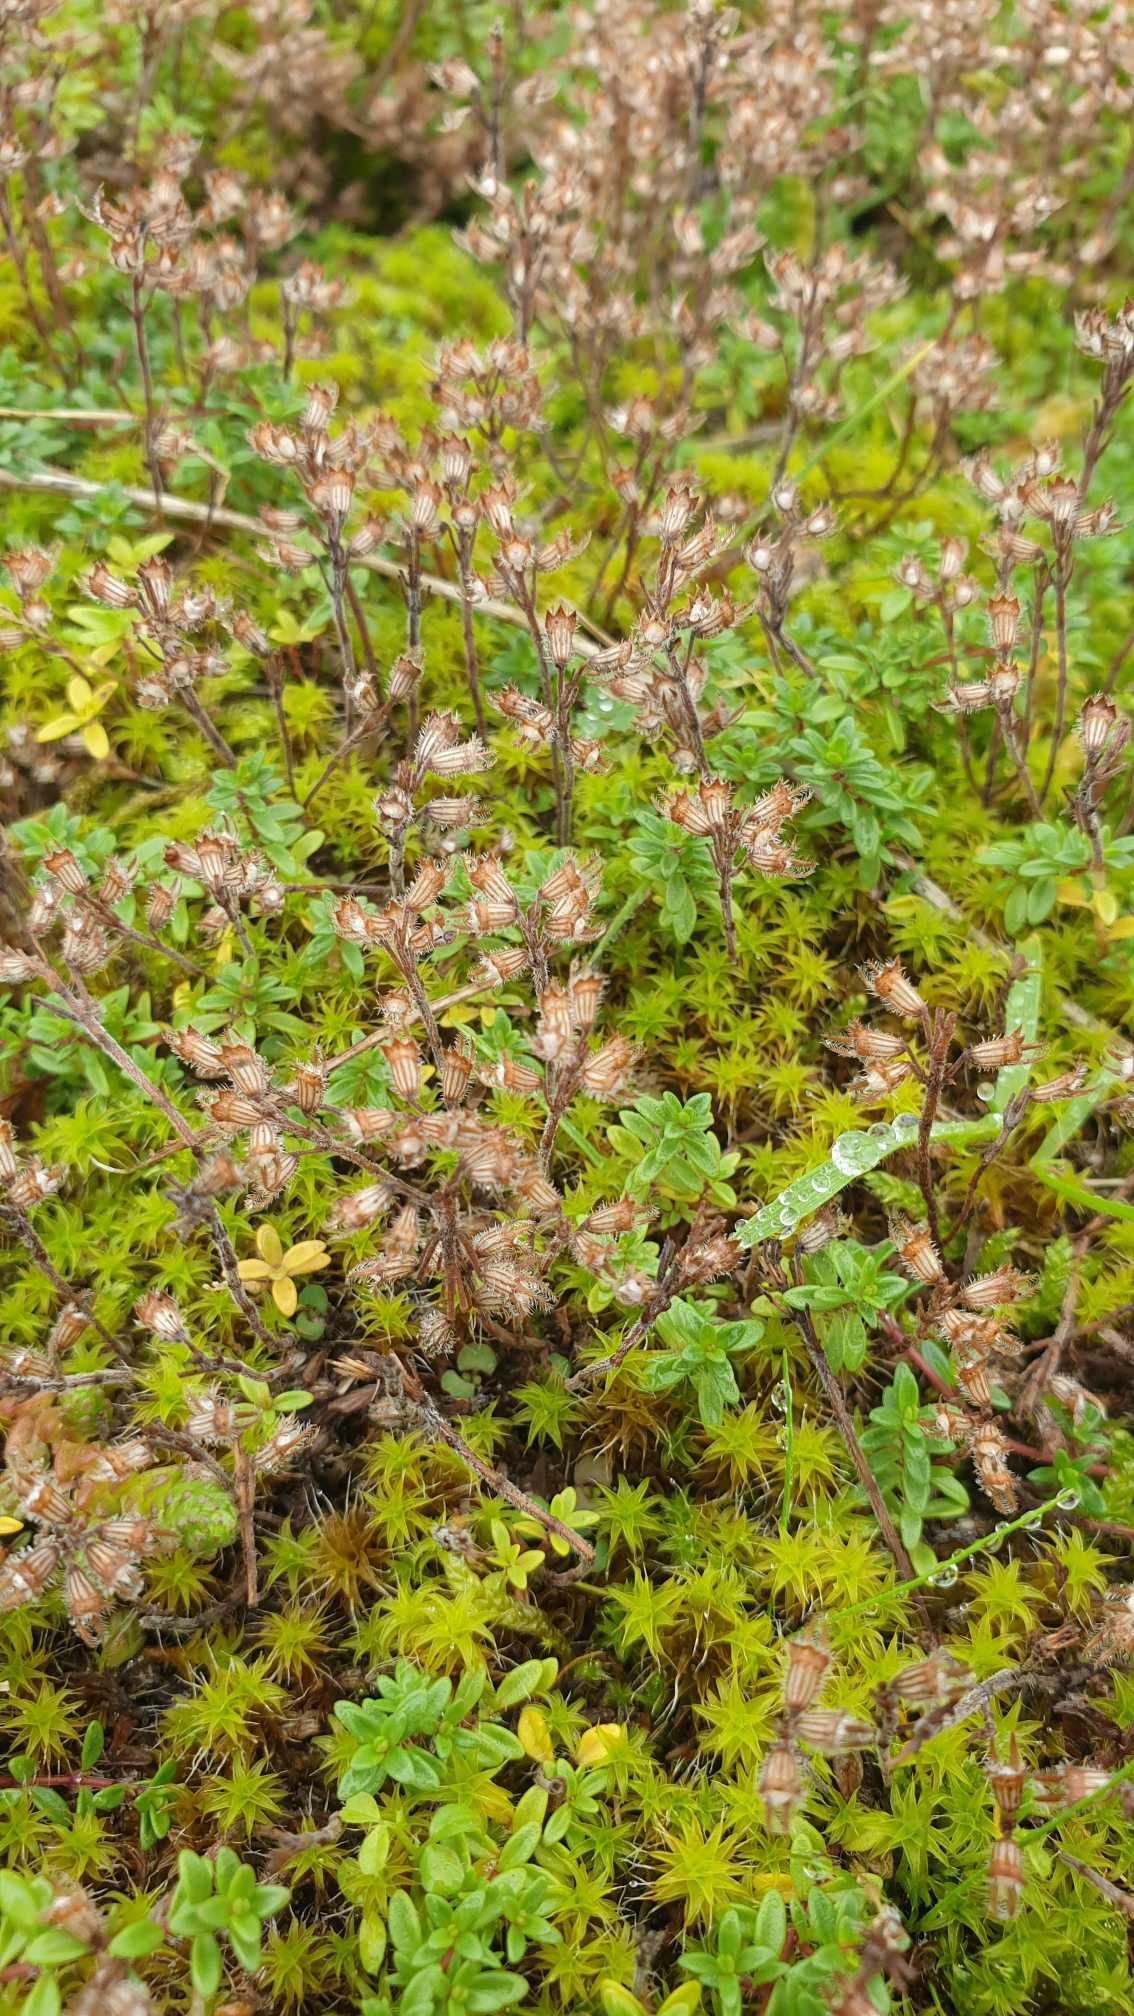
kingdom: Plantae
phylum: Tracheophyta
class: Magnoliopsida
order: Lamiales
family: Lamiaceae
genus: Thymus
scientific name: Thymus serpyllum
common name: Smalbladet timian
